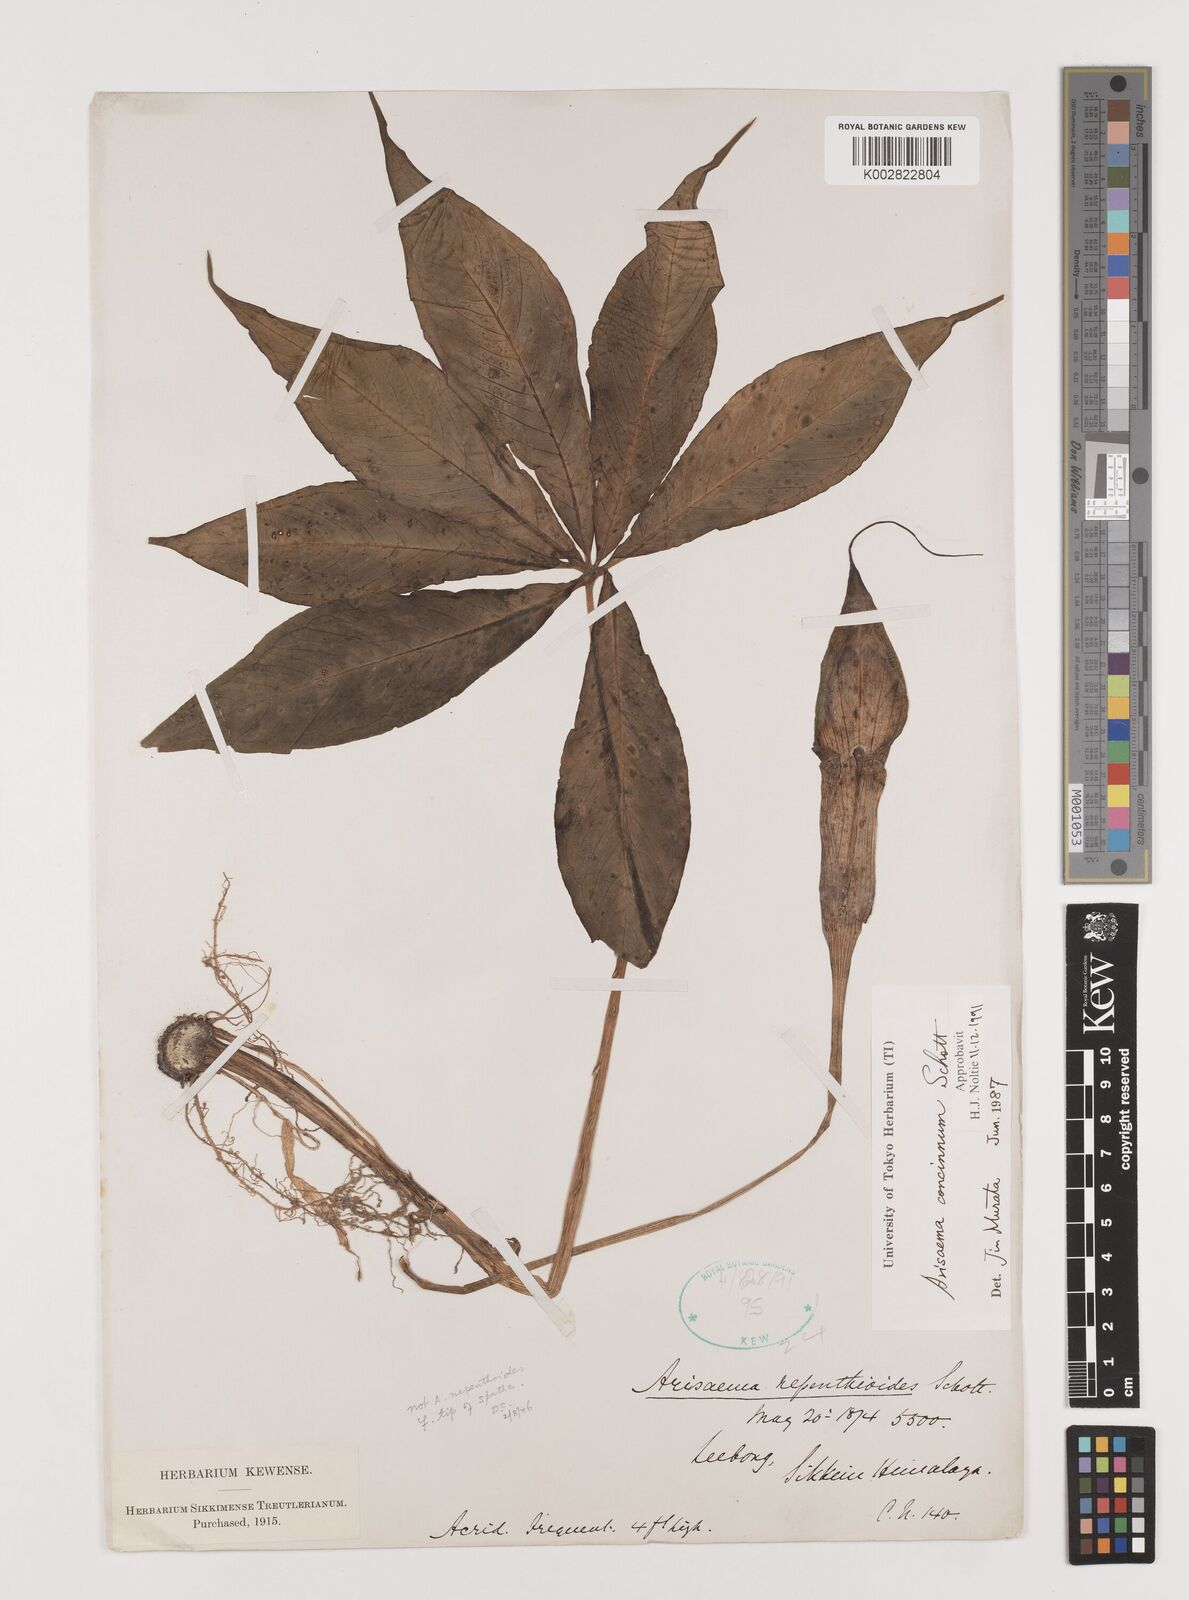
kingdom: Plantae
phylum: Tracheophyta
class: Liliopsida
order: Alismatales
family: Araceae
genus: Arisaema
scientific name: Arisaema concinnum
